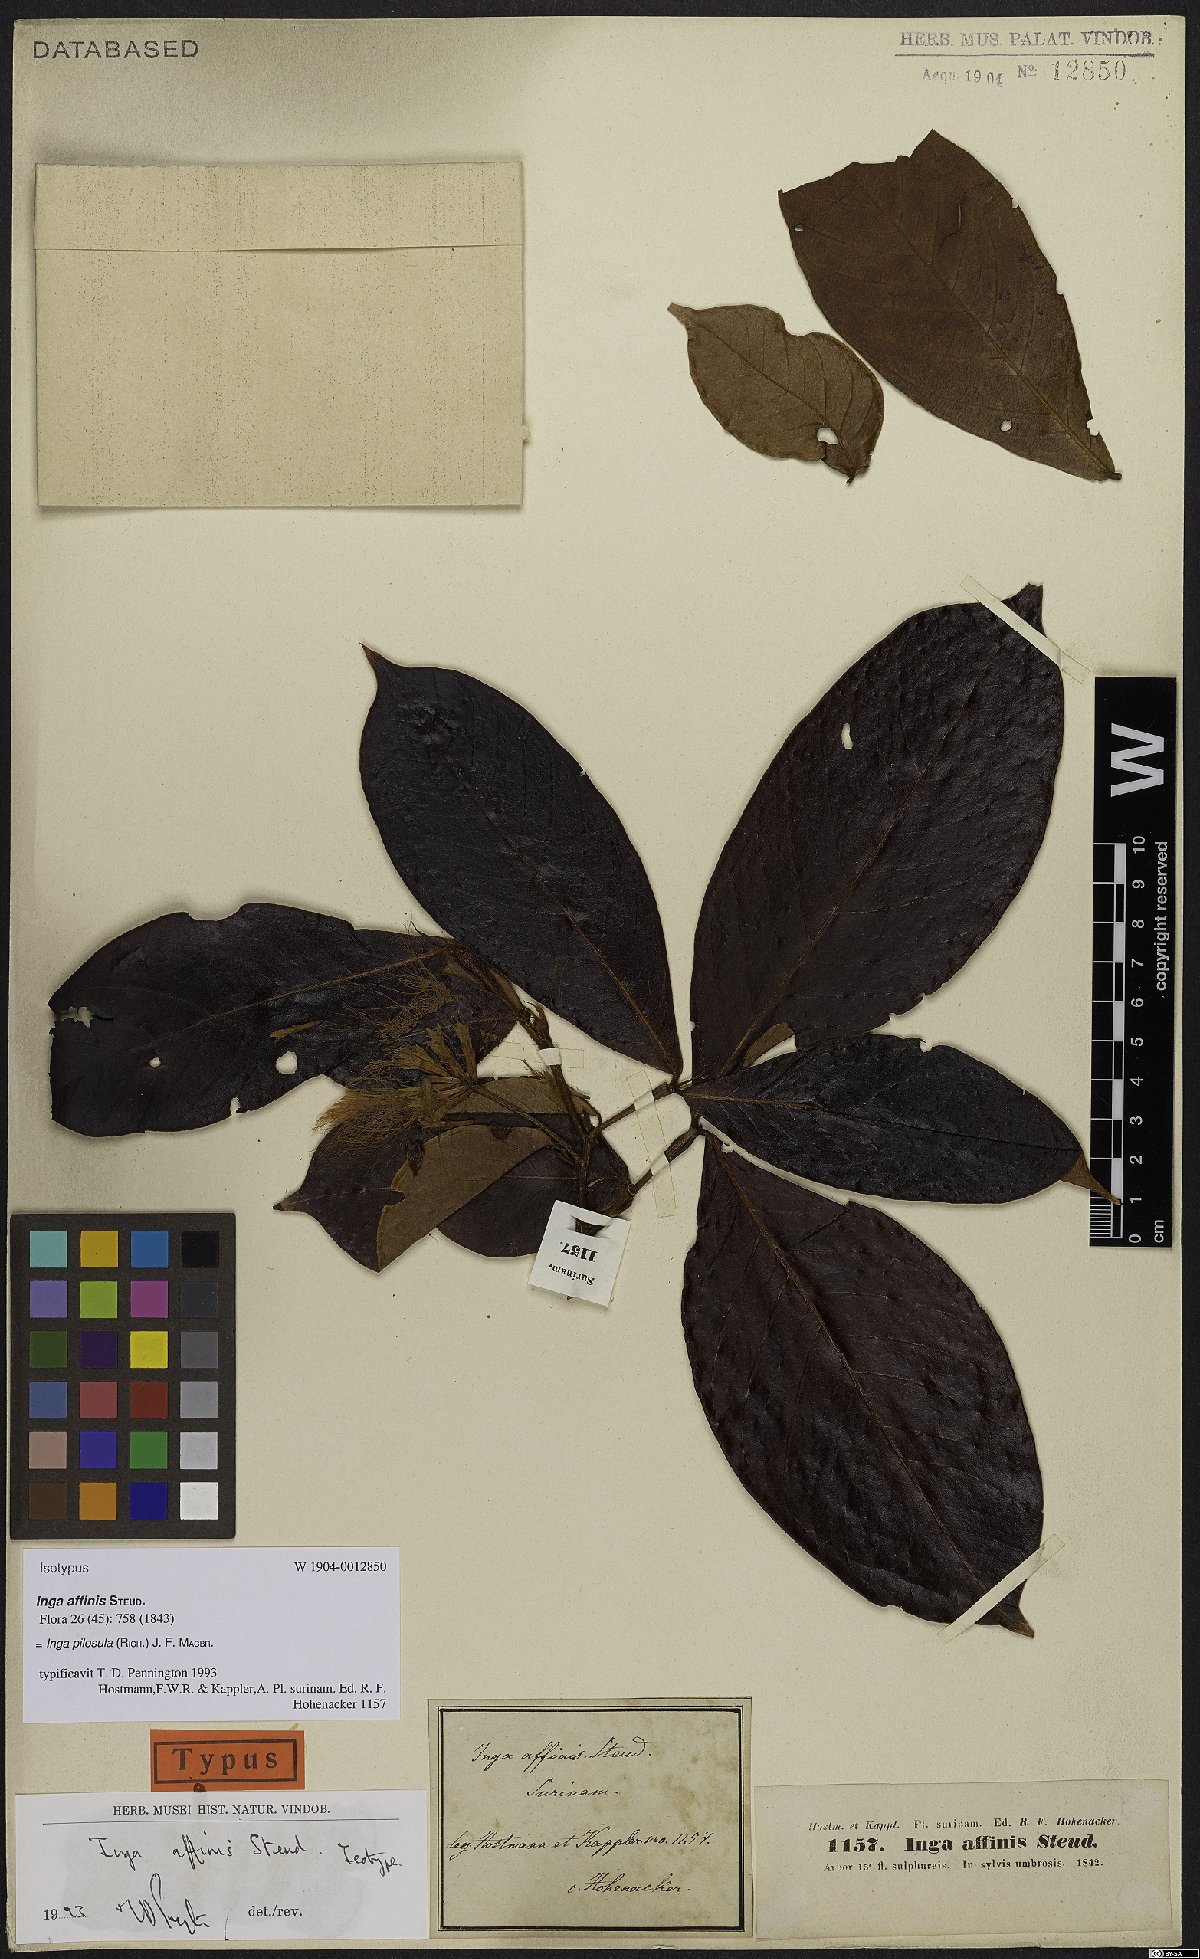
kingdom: Plantae
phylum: Tracheophyta
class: Magnoliopsida
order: Fabales
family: Fabaceae
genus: Inga
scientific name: Inga pilosula
